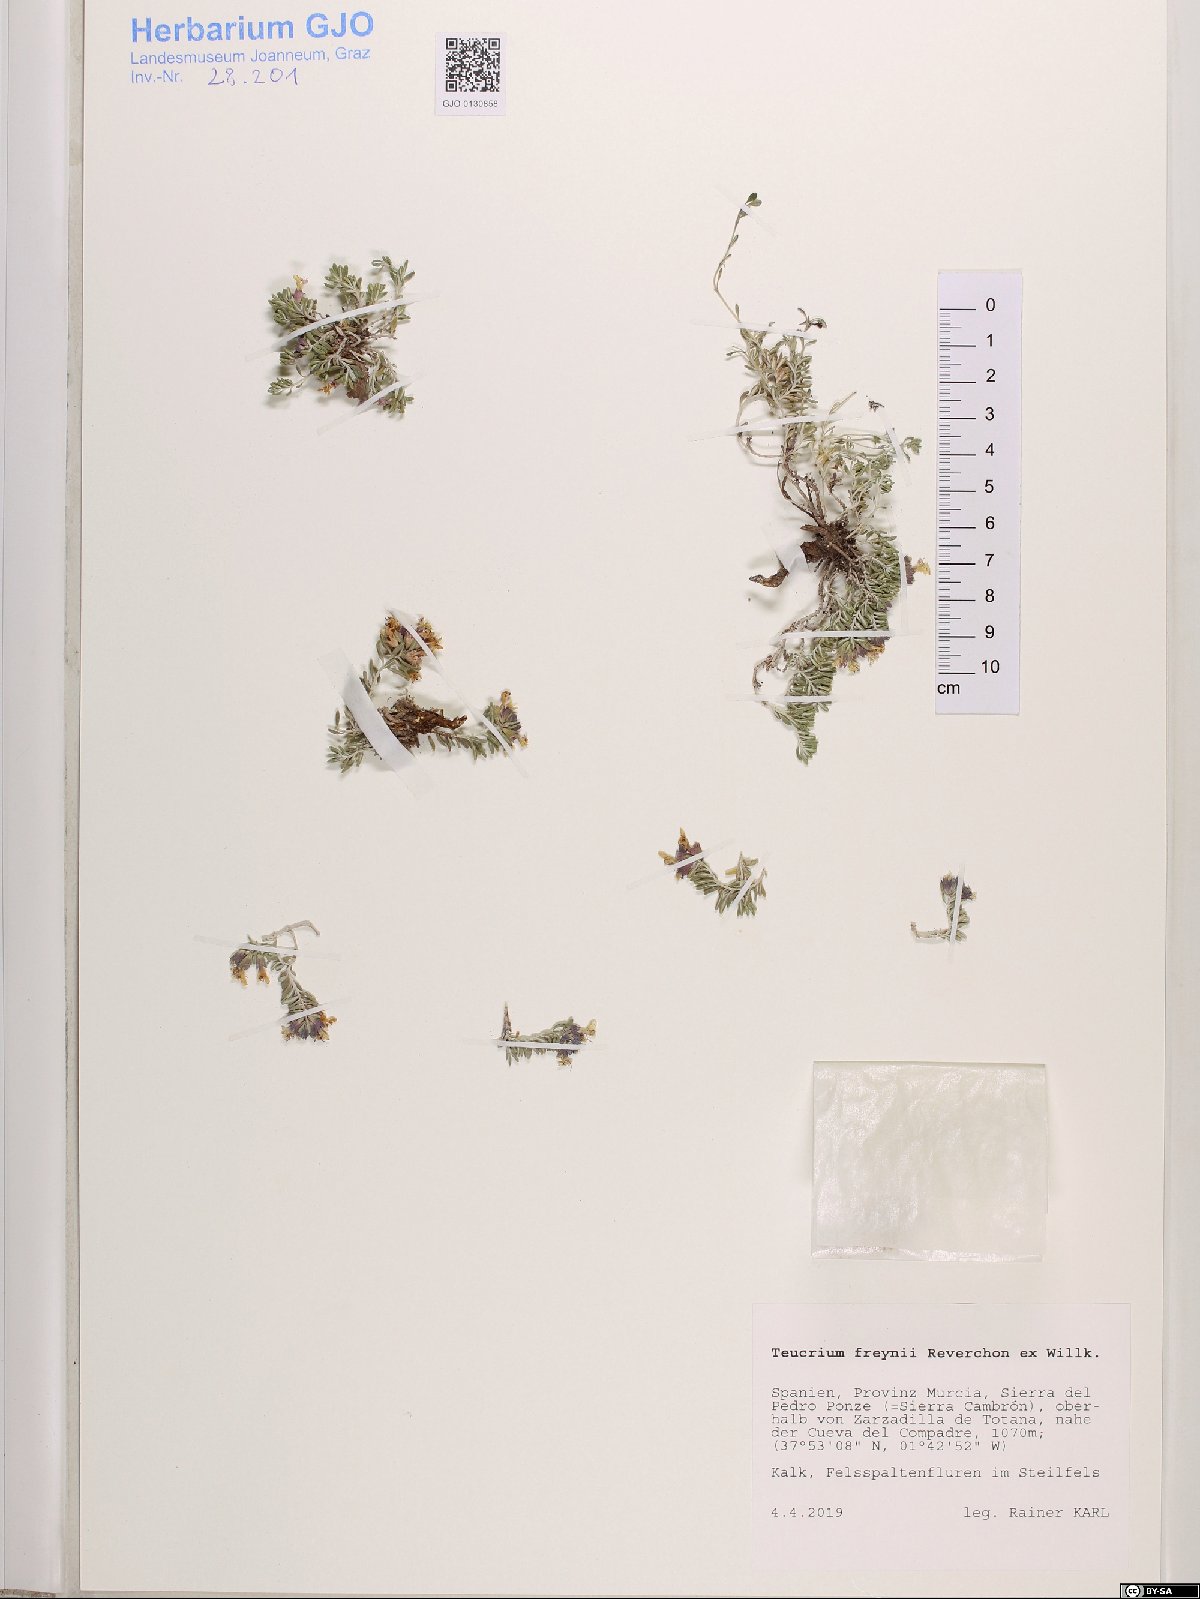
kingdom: Plantae
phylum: Tracheophyta
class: Magnoliopsida
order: Lamiales
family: Lamiaceae
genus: Teucrium
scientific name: Teucrium freynii
